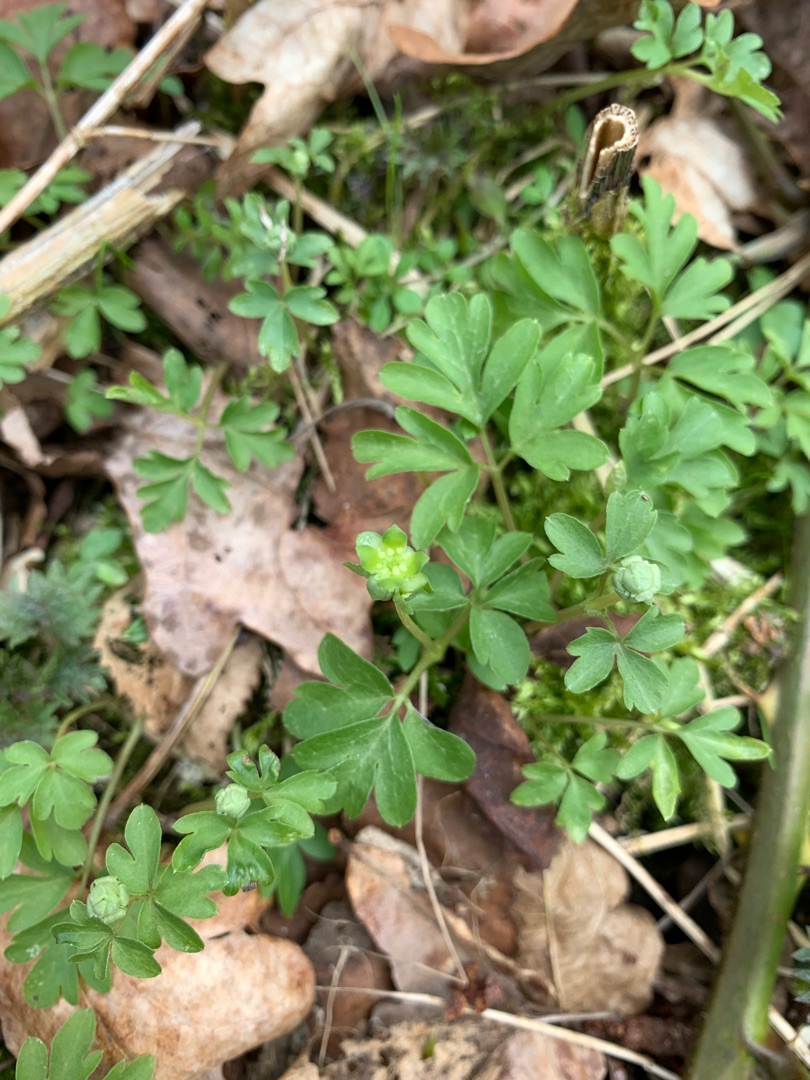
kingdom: Plantae
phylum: Tracheophyta
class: Magnoliopsida
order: Dipsacales
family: Viburnaceae
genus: Adoxa
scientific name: Adoxa moschatellina
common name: Desmerurt
